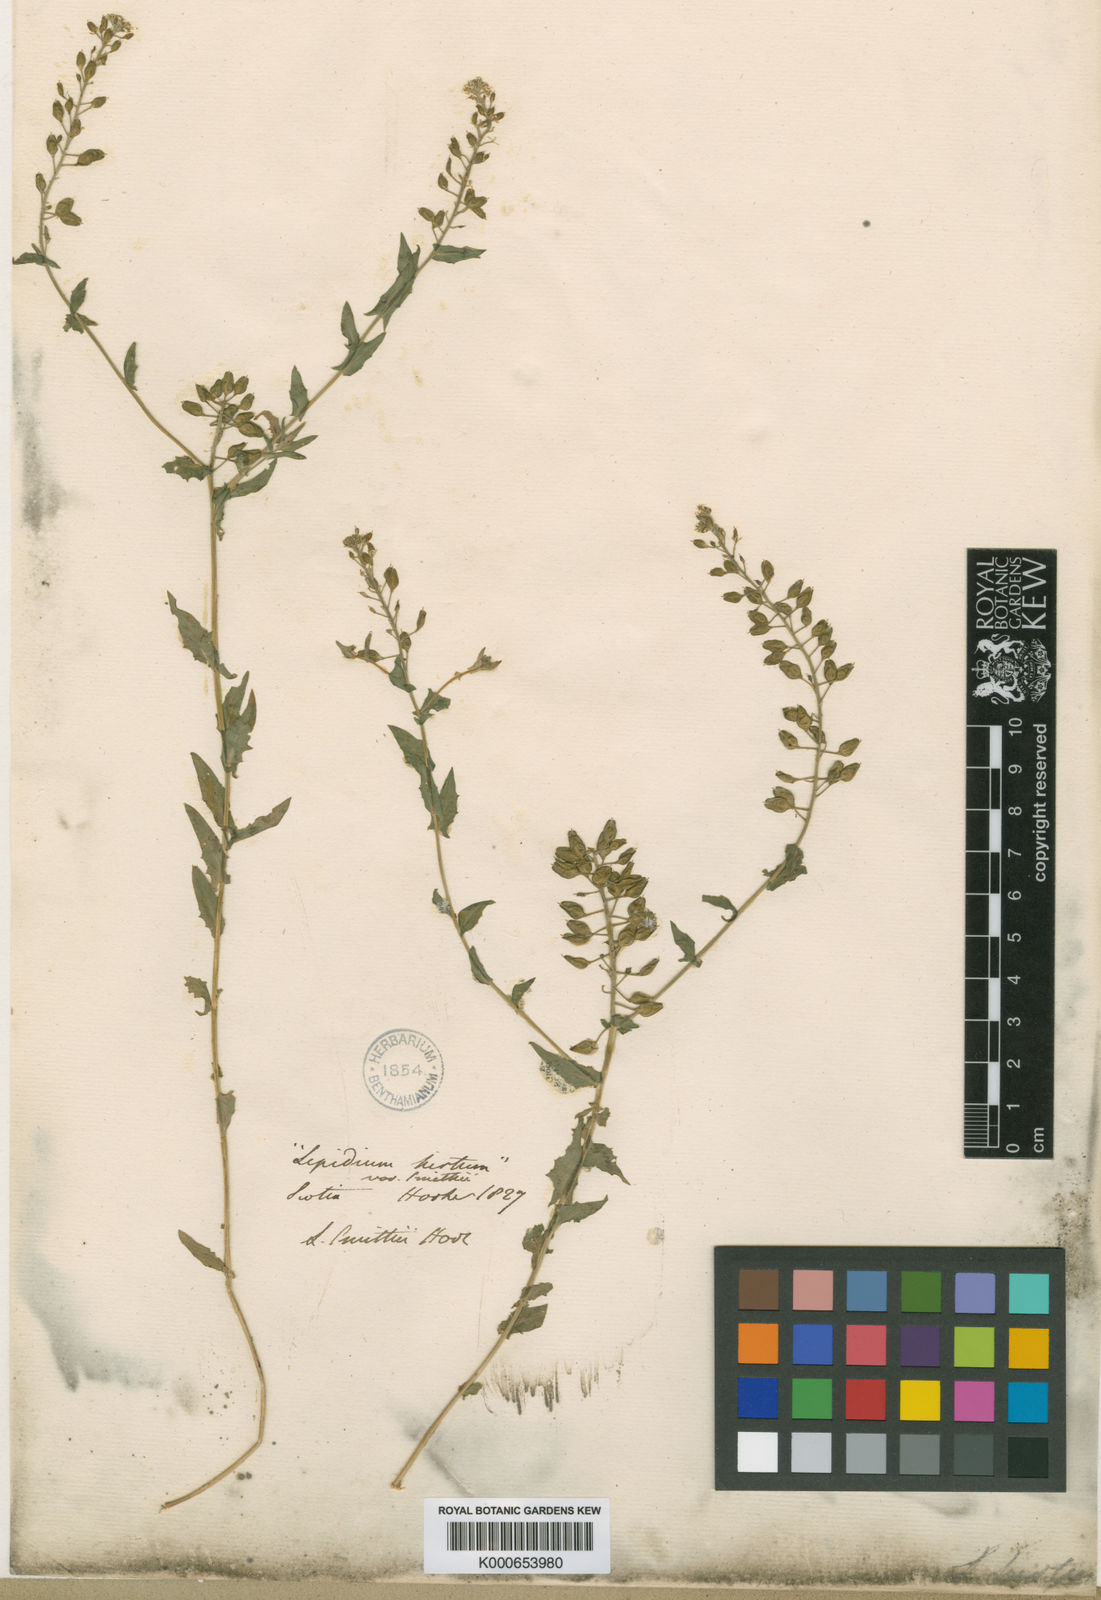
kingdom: Plantae
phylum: Tracheophyta
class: Magnoliopsida
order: Brassicales
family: Brassicaceae
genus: Lepidium
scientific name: Lepidium heterophyllum
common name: Smith's pepperwort
